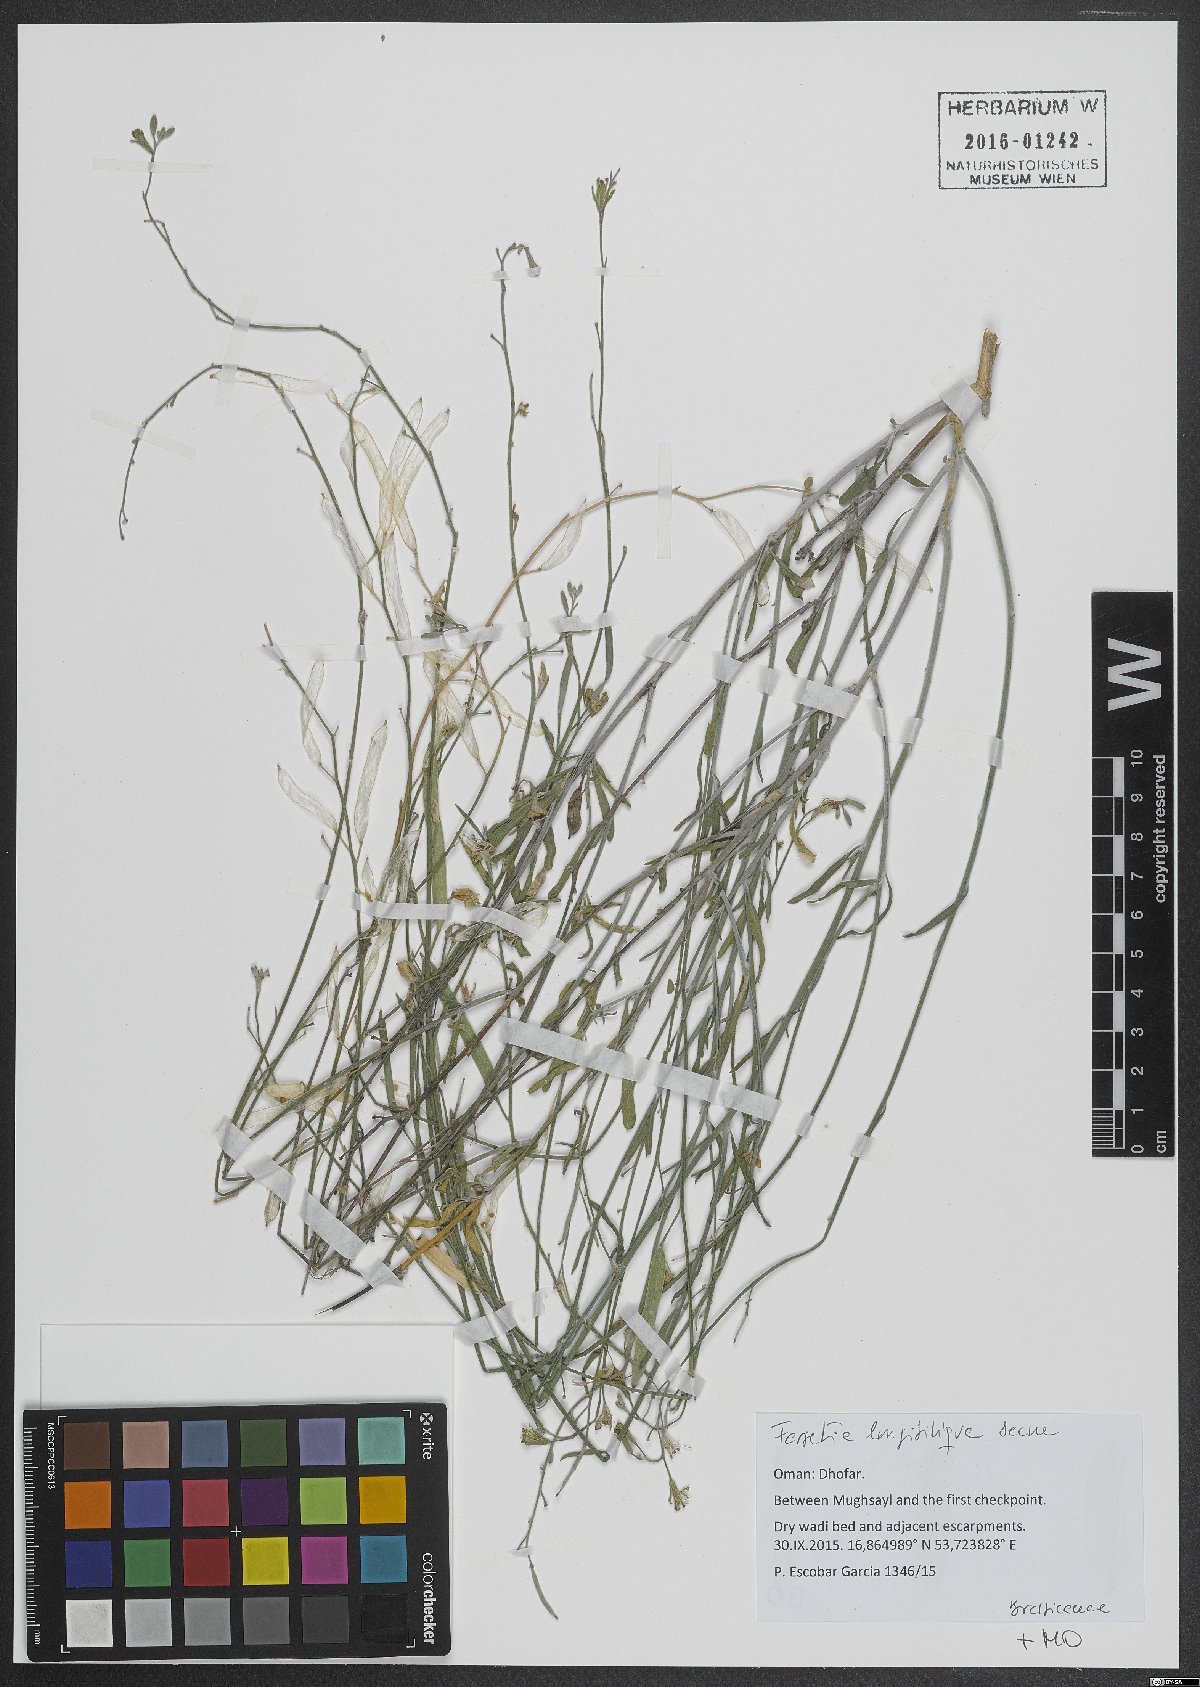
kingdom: Plantae
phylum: Tracheophyta
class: Magnoliopsida
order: Brassicales
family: Brassicaceae
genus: Farsetia
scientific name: Farsetia longisiliqua
